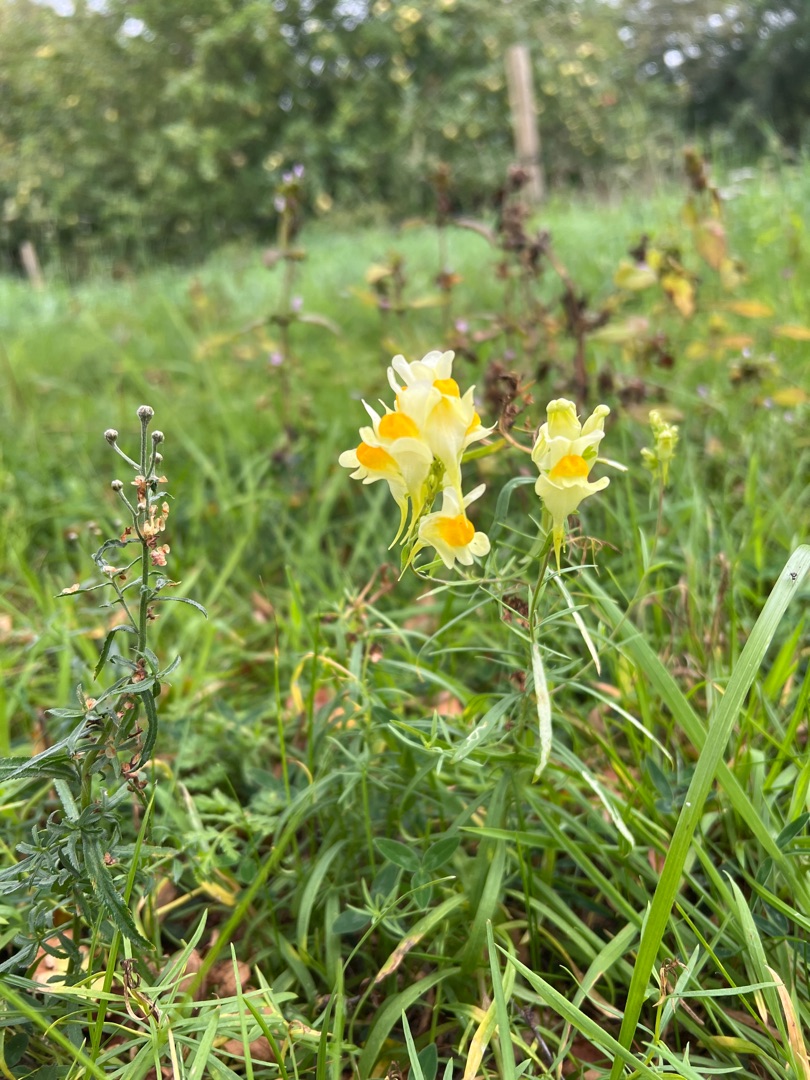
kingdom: Plantae
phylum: Tracheophyta
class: Magnoliopsida
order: Lamiales
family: Plantaginaceae
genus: Linaria
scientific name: Linaria vulgaris
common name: Almindelig torskemund
